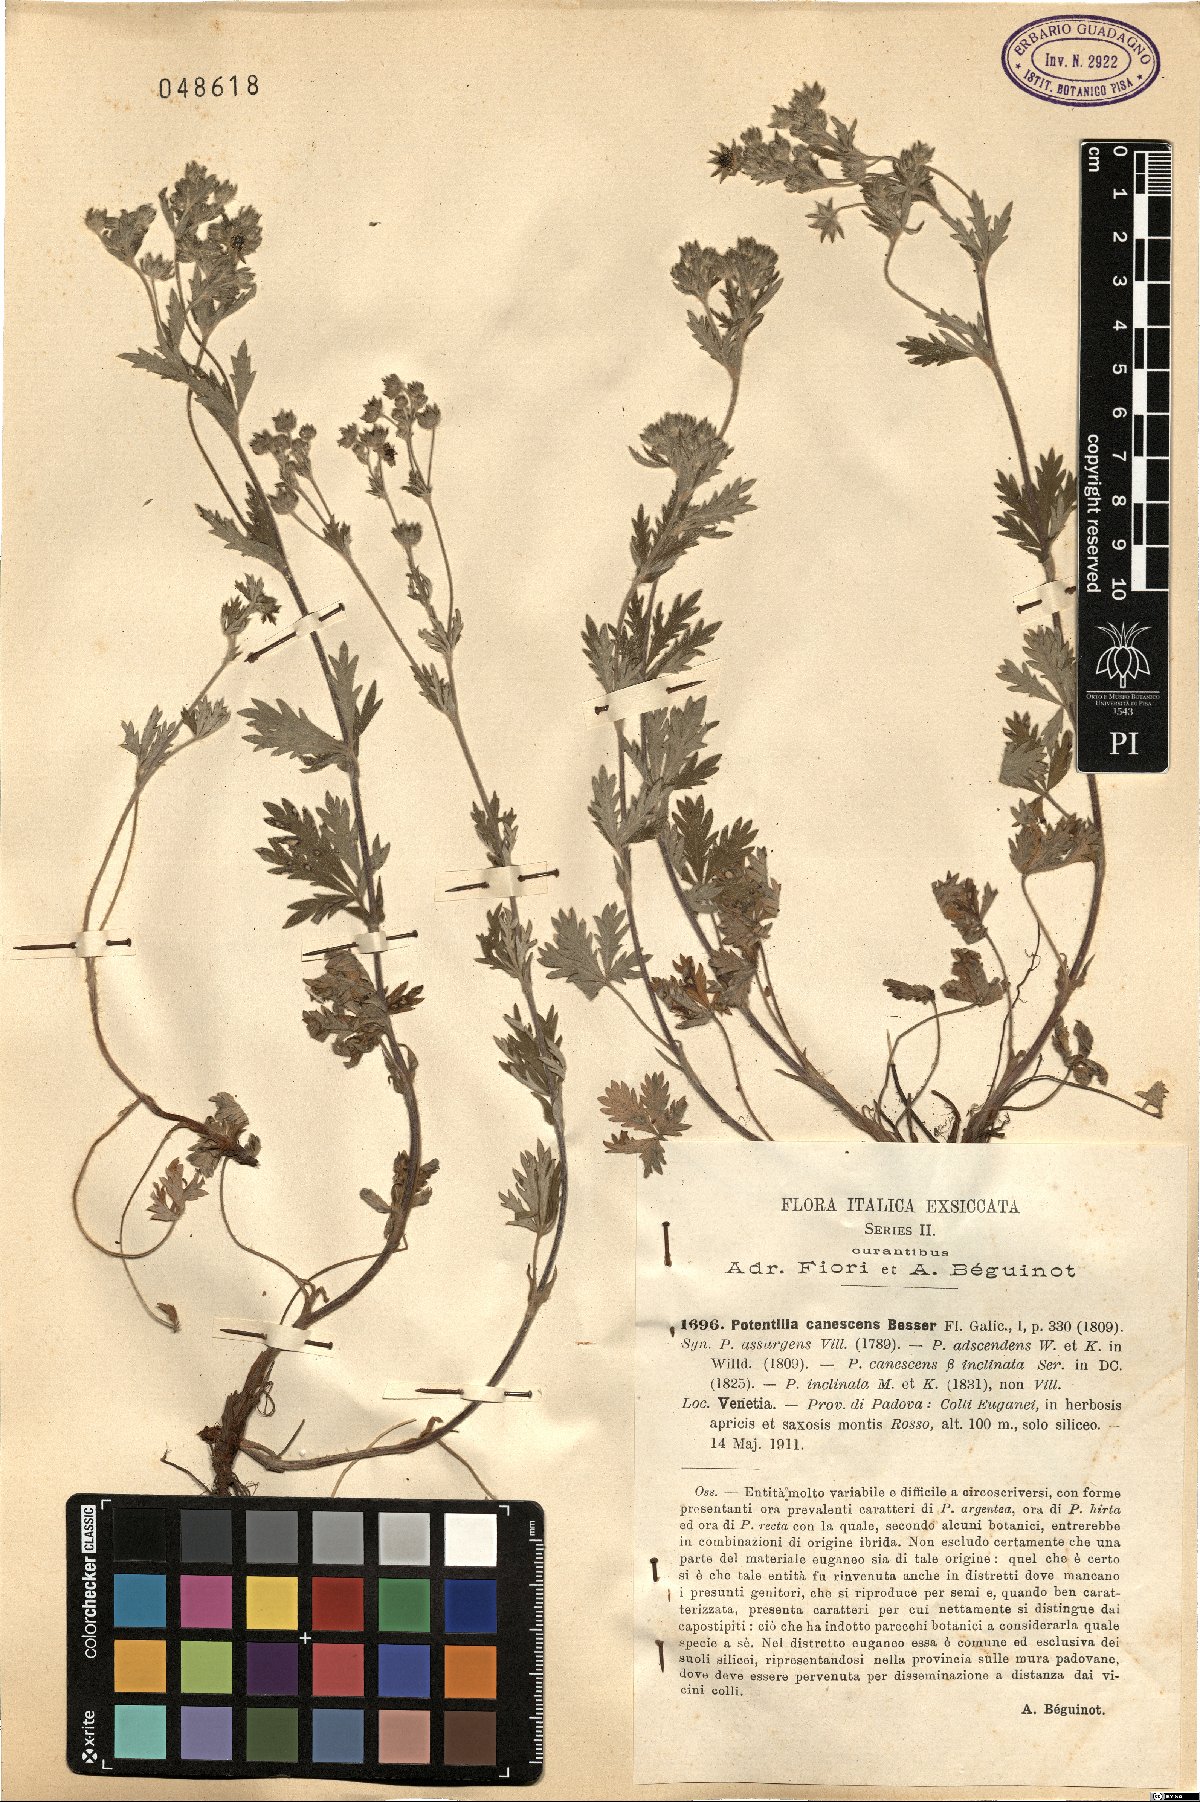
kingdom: Plantae
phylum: Tracheophyta
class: Magnoliopsida
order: Rosales
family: Rosaceae
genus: Potentilla
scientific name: Potentilla inclinata
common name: Grey cinquefoil
